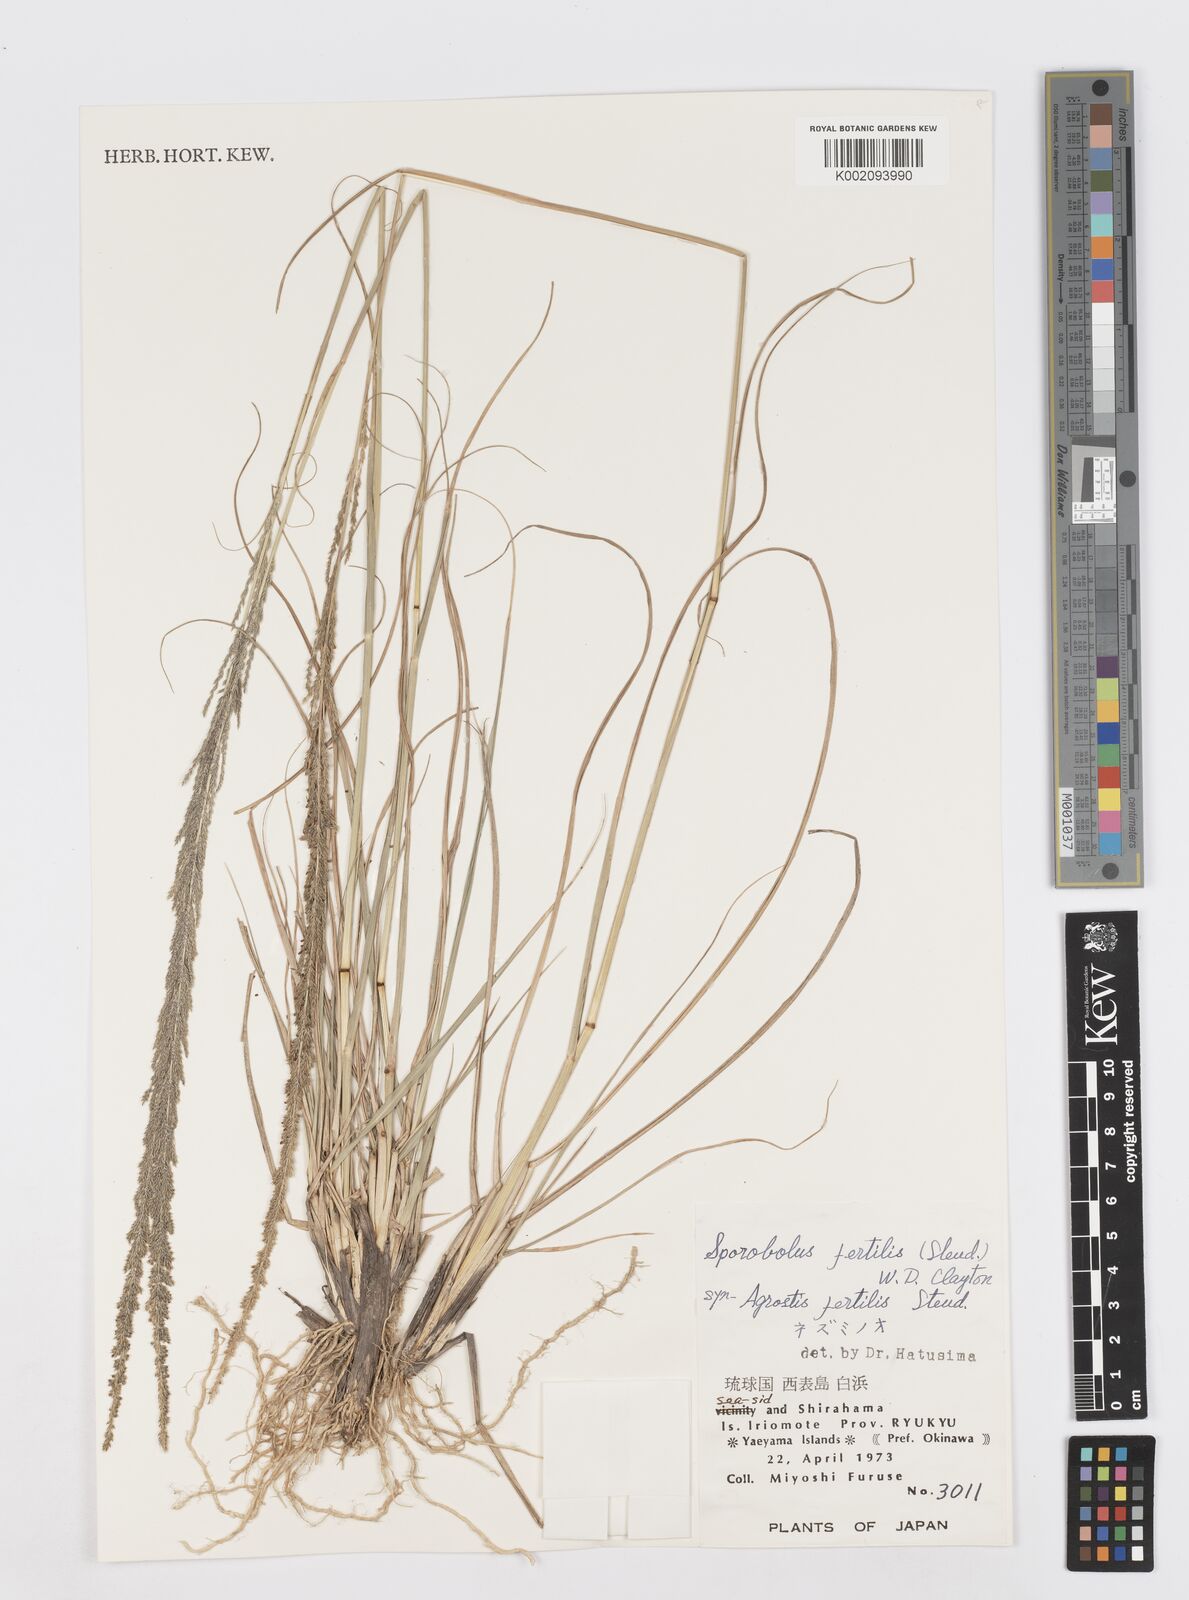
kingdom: Plantae
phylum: Tracheophyta
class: Liliopsida
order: Poales
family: Poaceae
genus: Sporobolus
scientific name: Sporobolus fertilis
